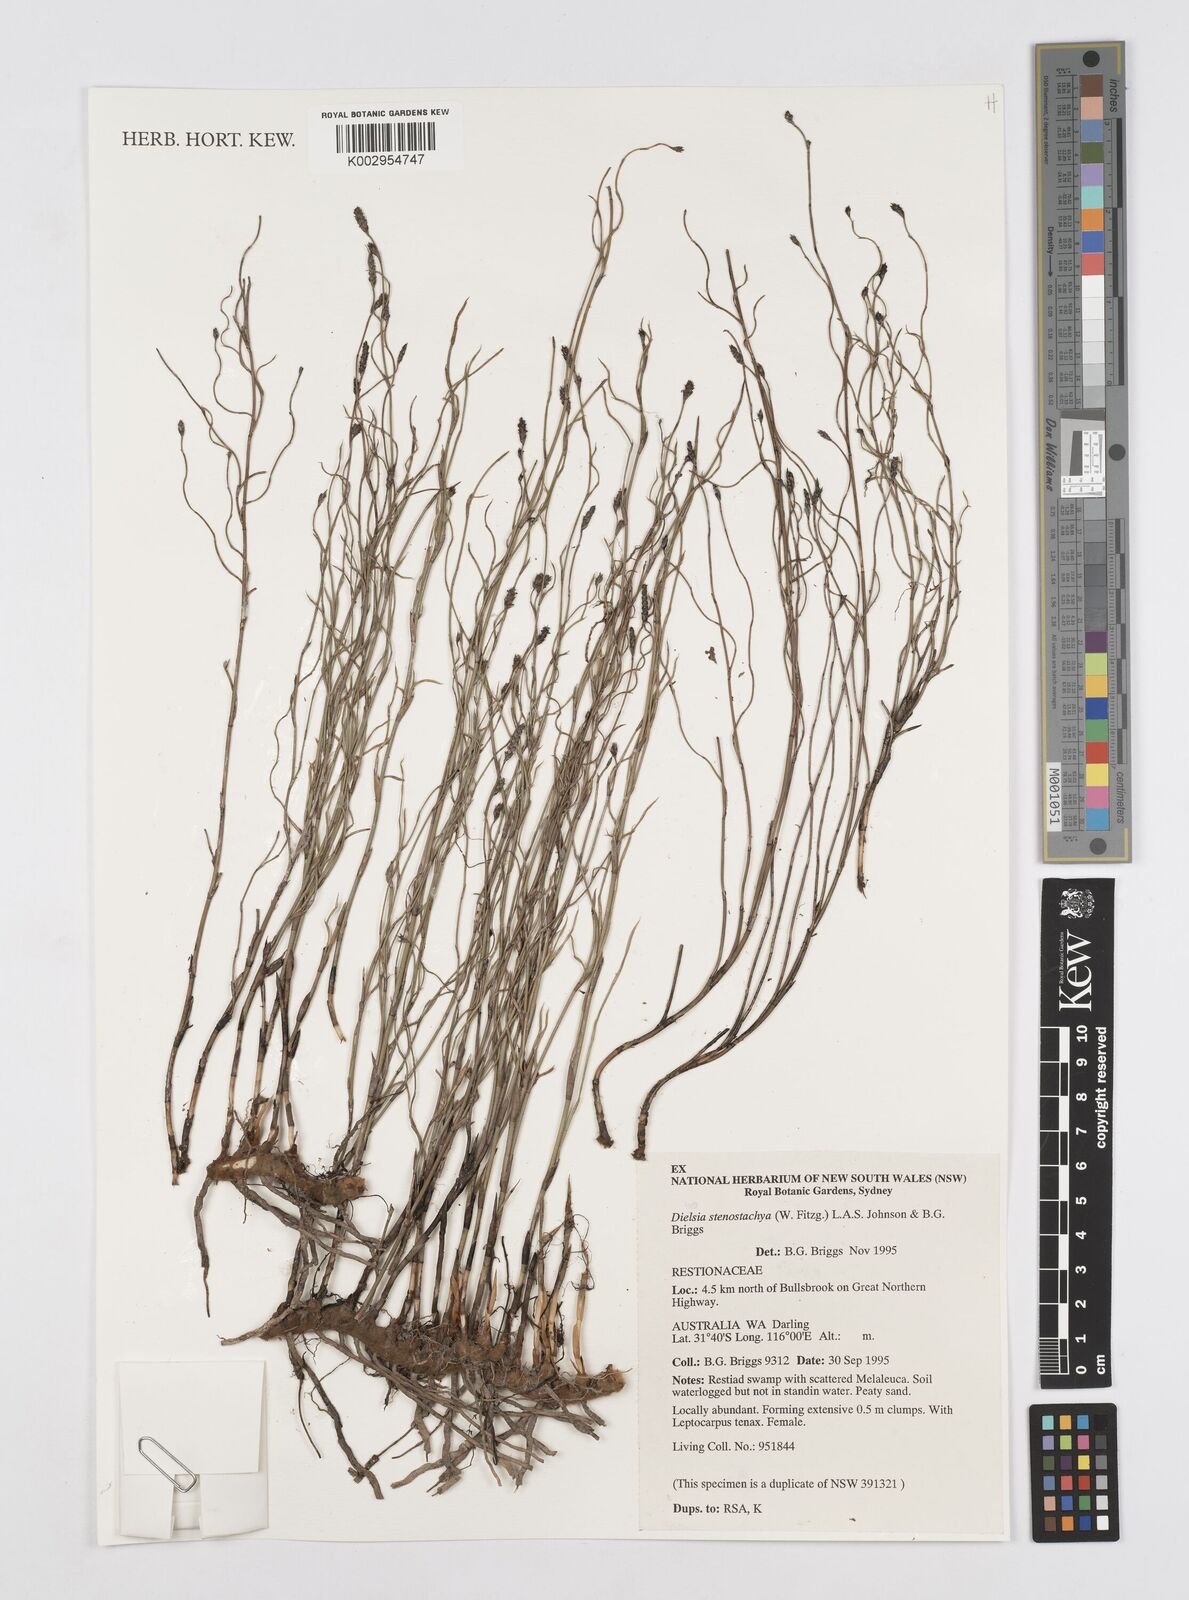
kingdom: Plantae
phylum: Tracheophyta
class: Liliopsida
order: Poales
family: Restionaceae
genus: Dielsia
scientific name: Dielsia stenostachya
